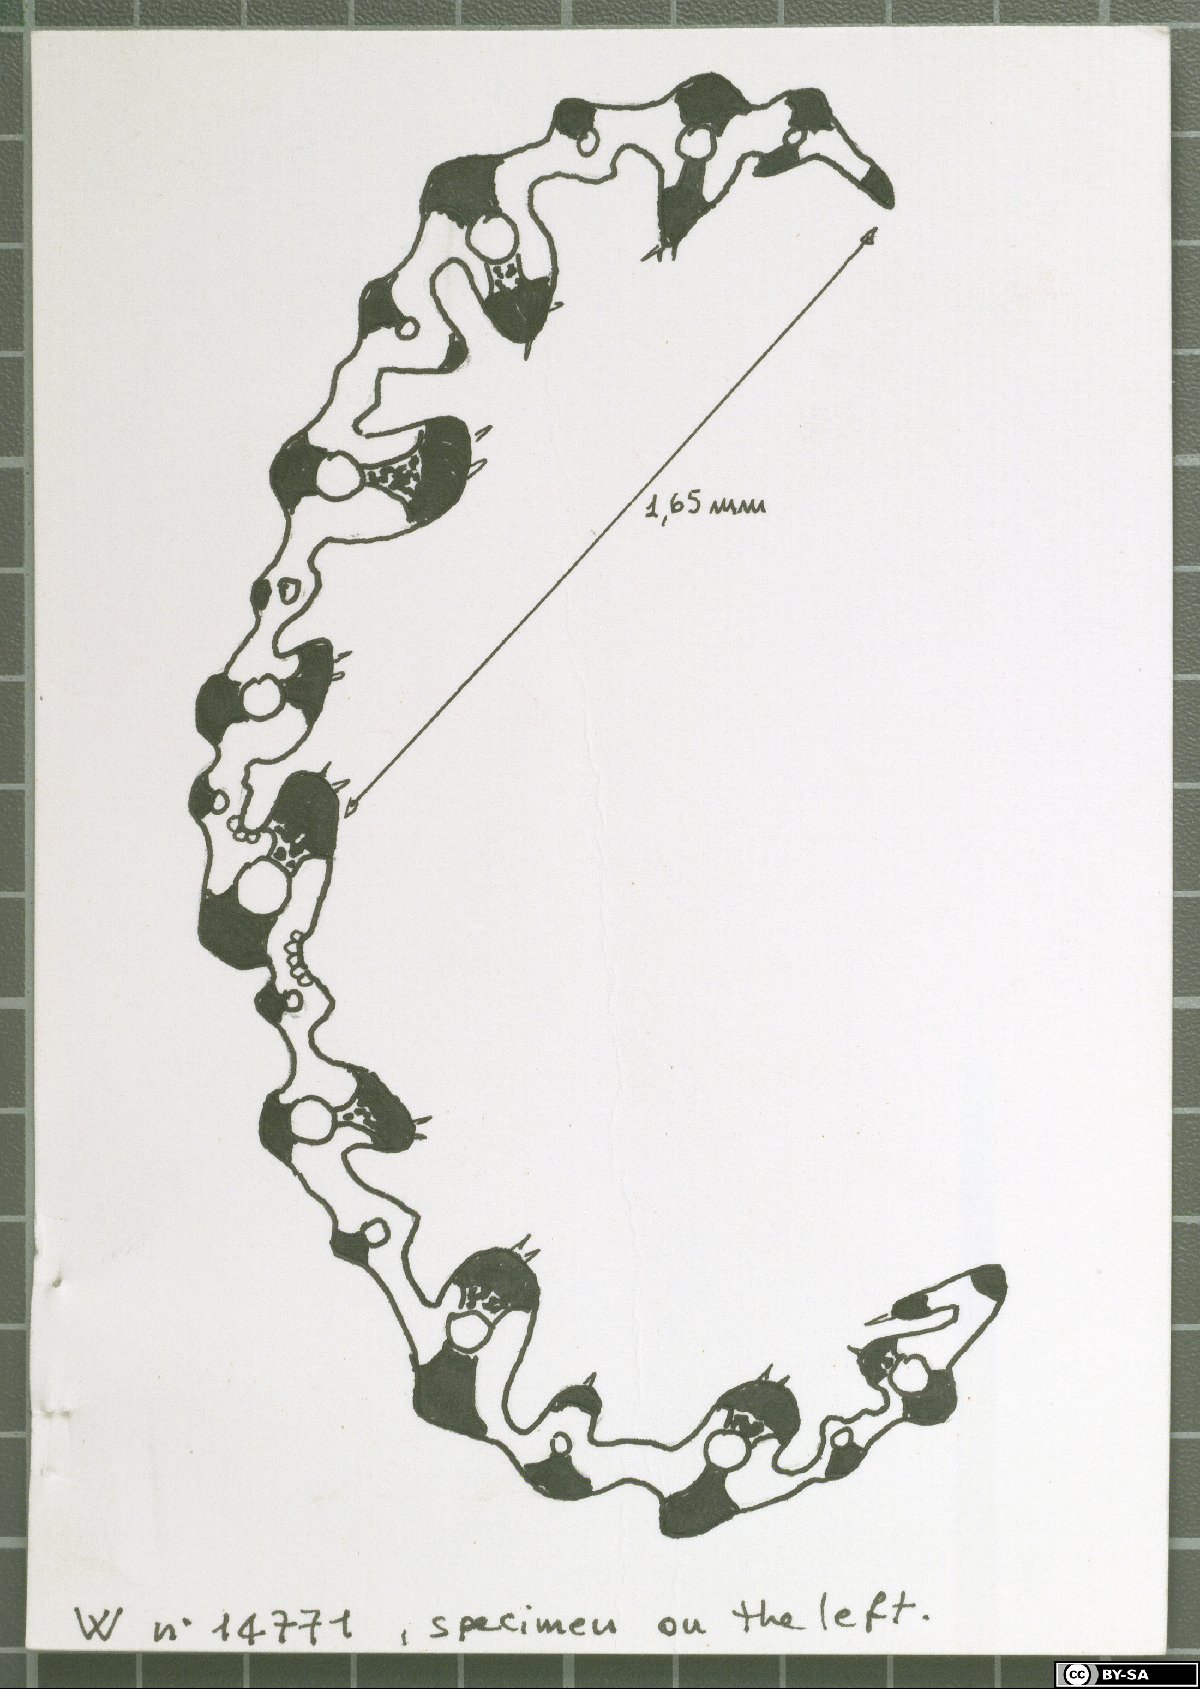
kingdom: Plantae
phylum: Tracheophyta
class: Liliopsida
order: Poales
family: Poaceae
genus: Festuca
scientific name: Festuca spectabilis
